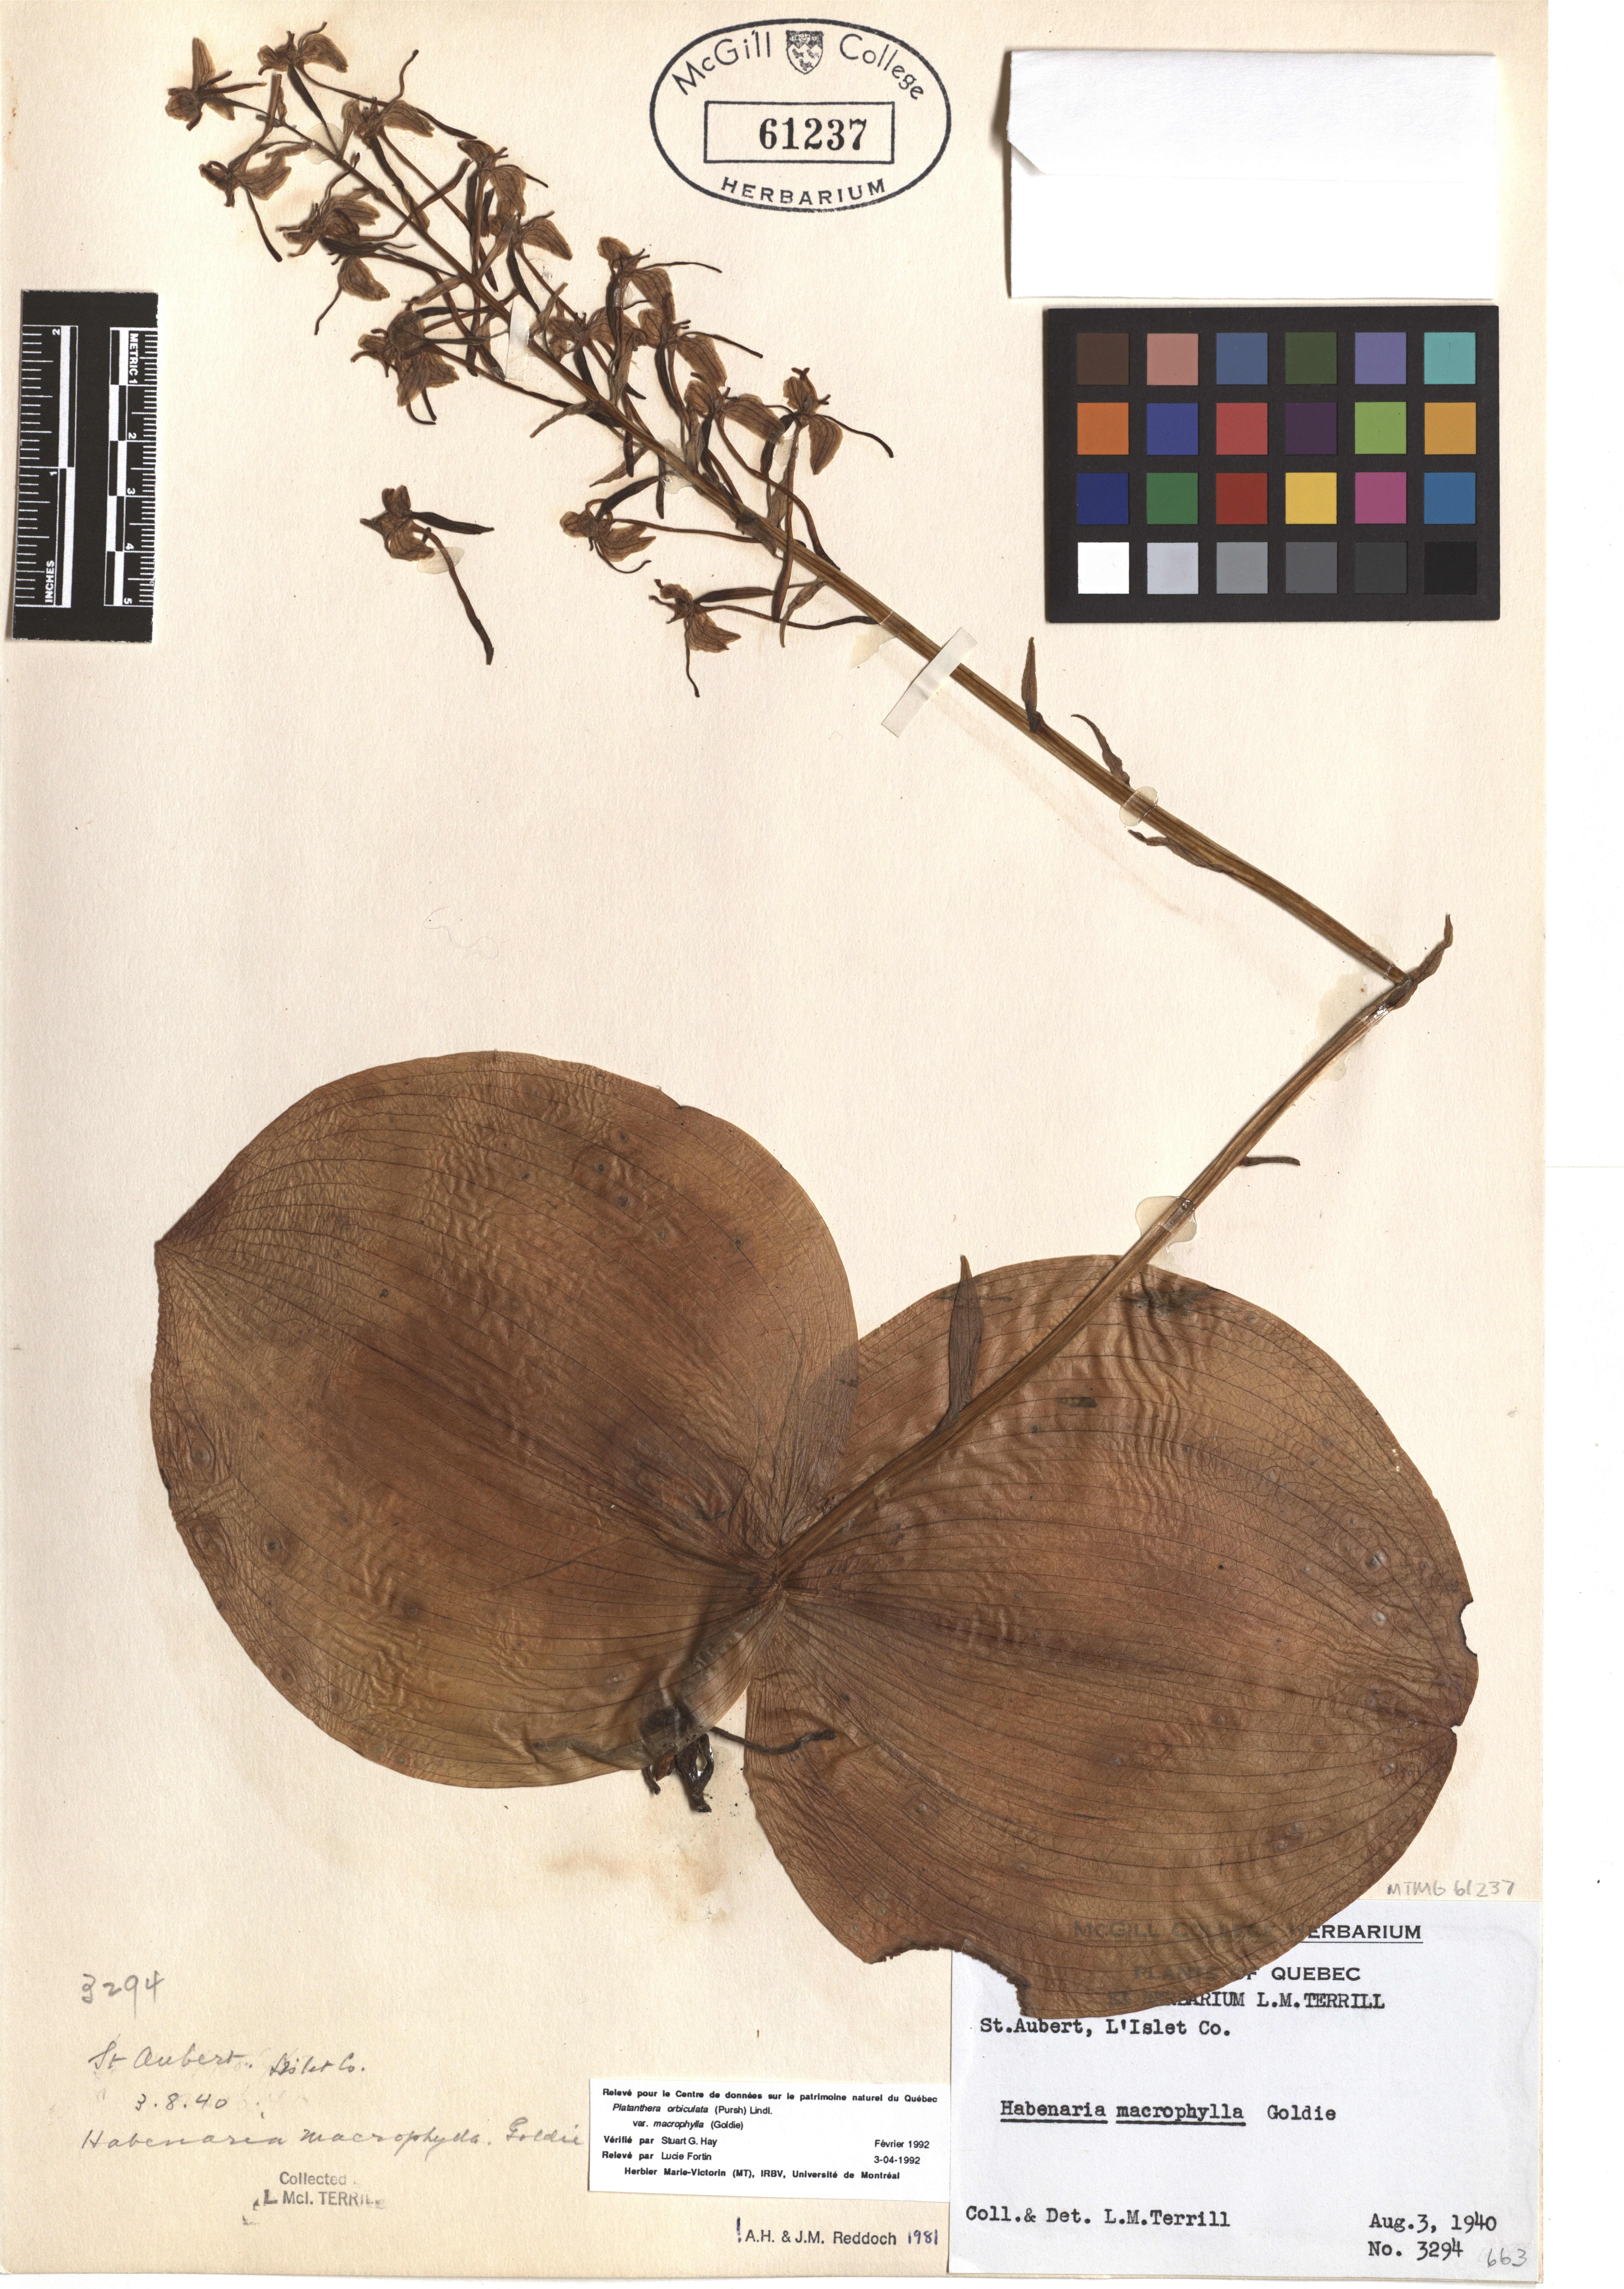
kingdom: Plantae
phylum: Tracheophyta
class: Liliopsida
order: Asparagales
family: Orchidaceae
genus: Platanthera
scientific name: Platanthera orbiculata
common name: Large round-leaved orchid
